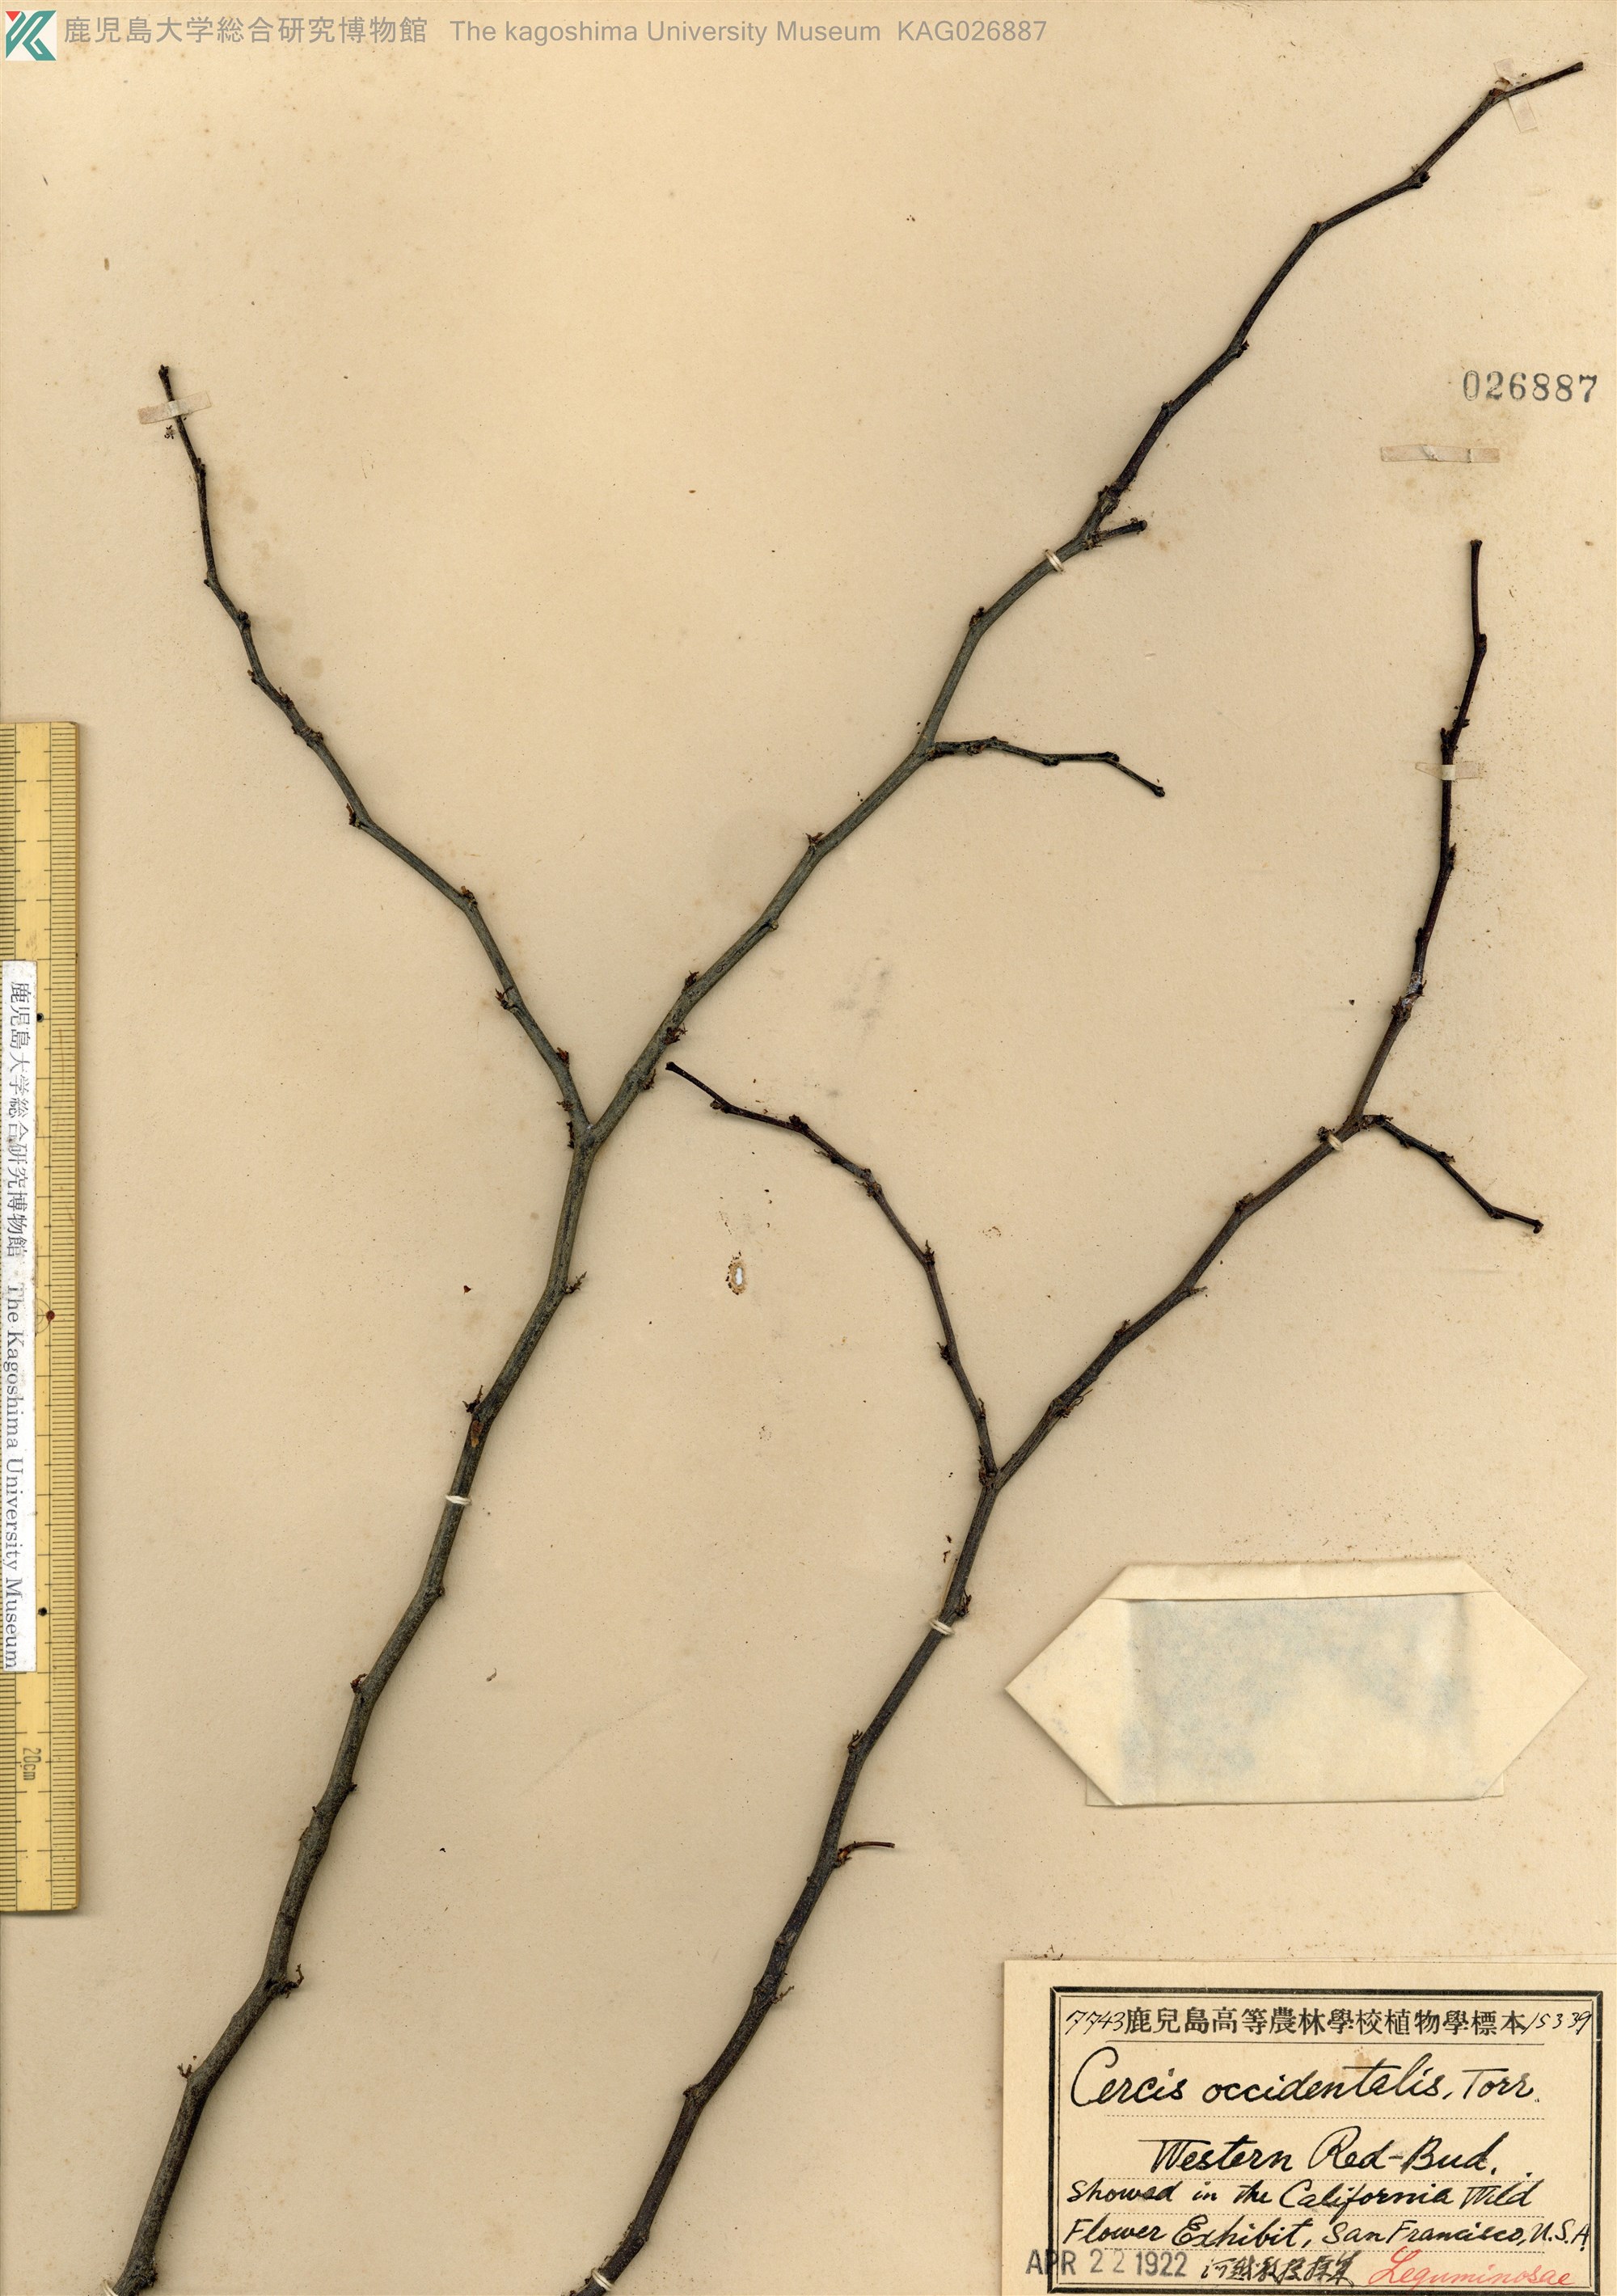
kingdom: Plantae
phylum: Tracheophyta
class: Magnoliopsida
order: Fabales
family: Fabaceae
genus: Cercis
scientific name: Cercis occidentalis
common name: California redbud
